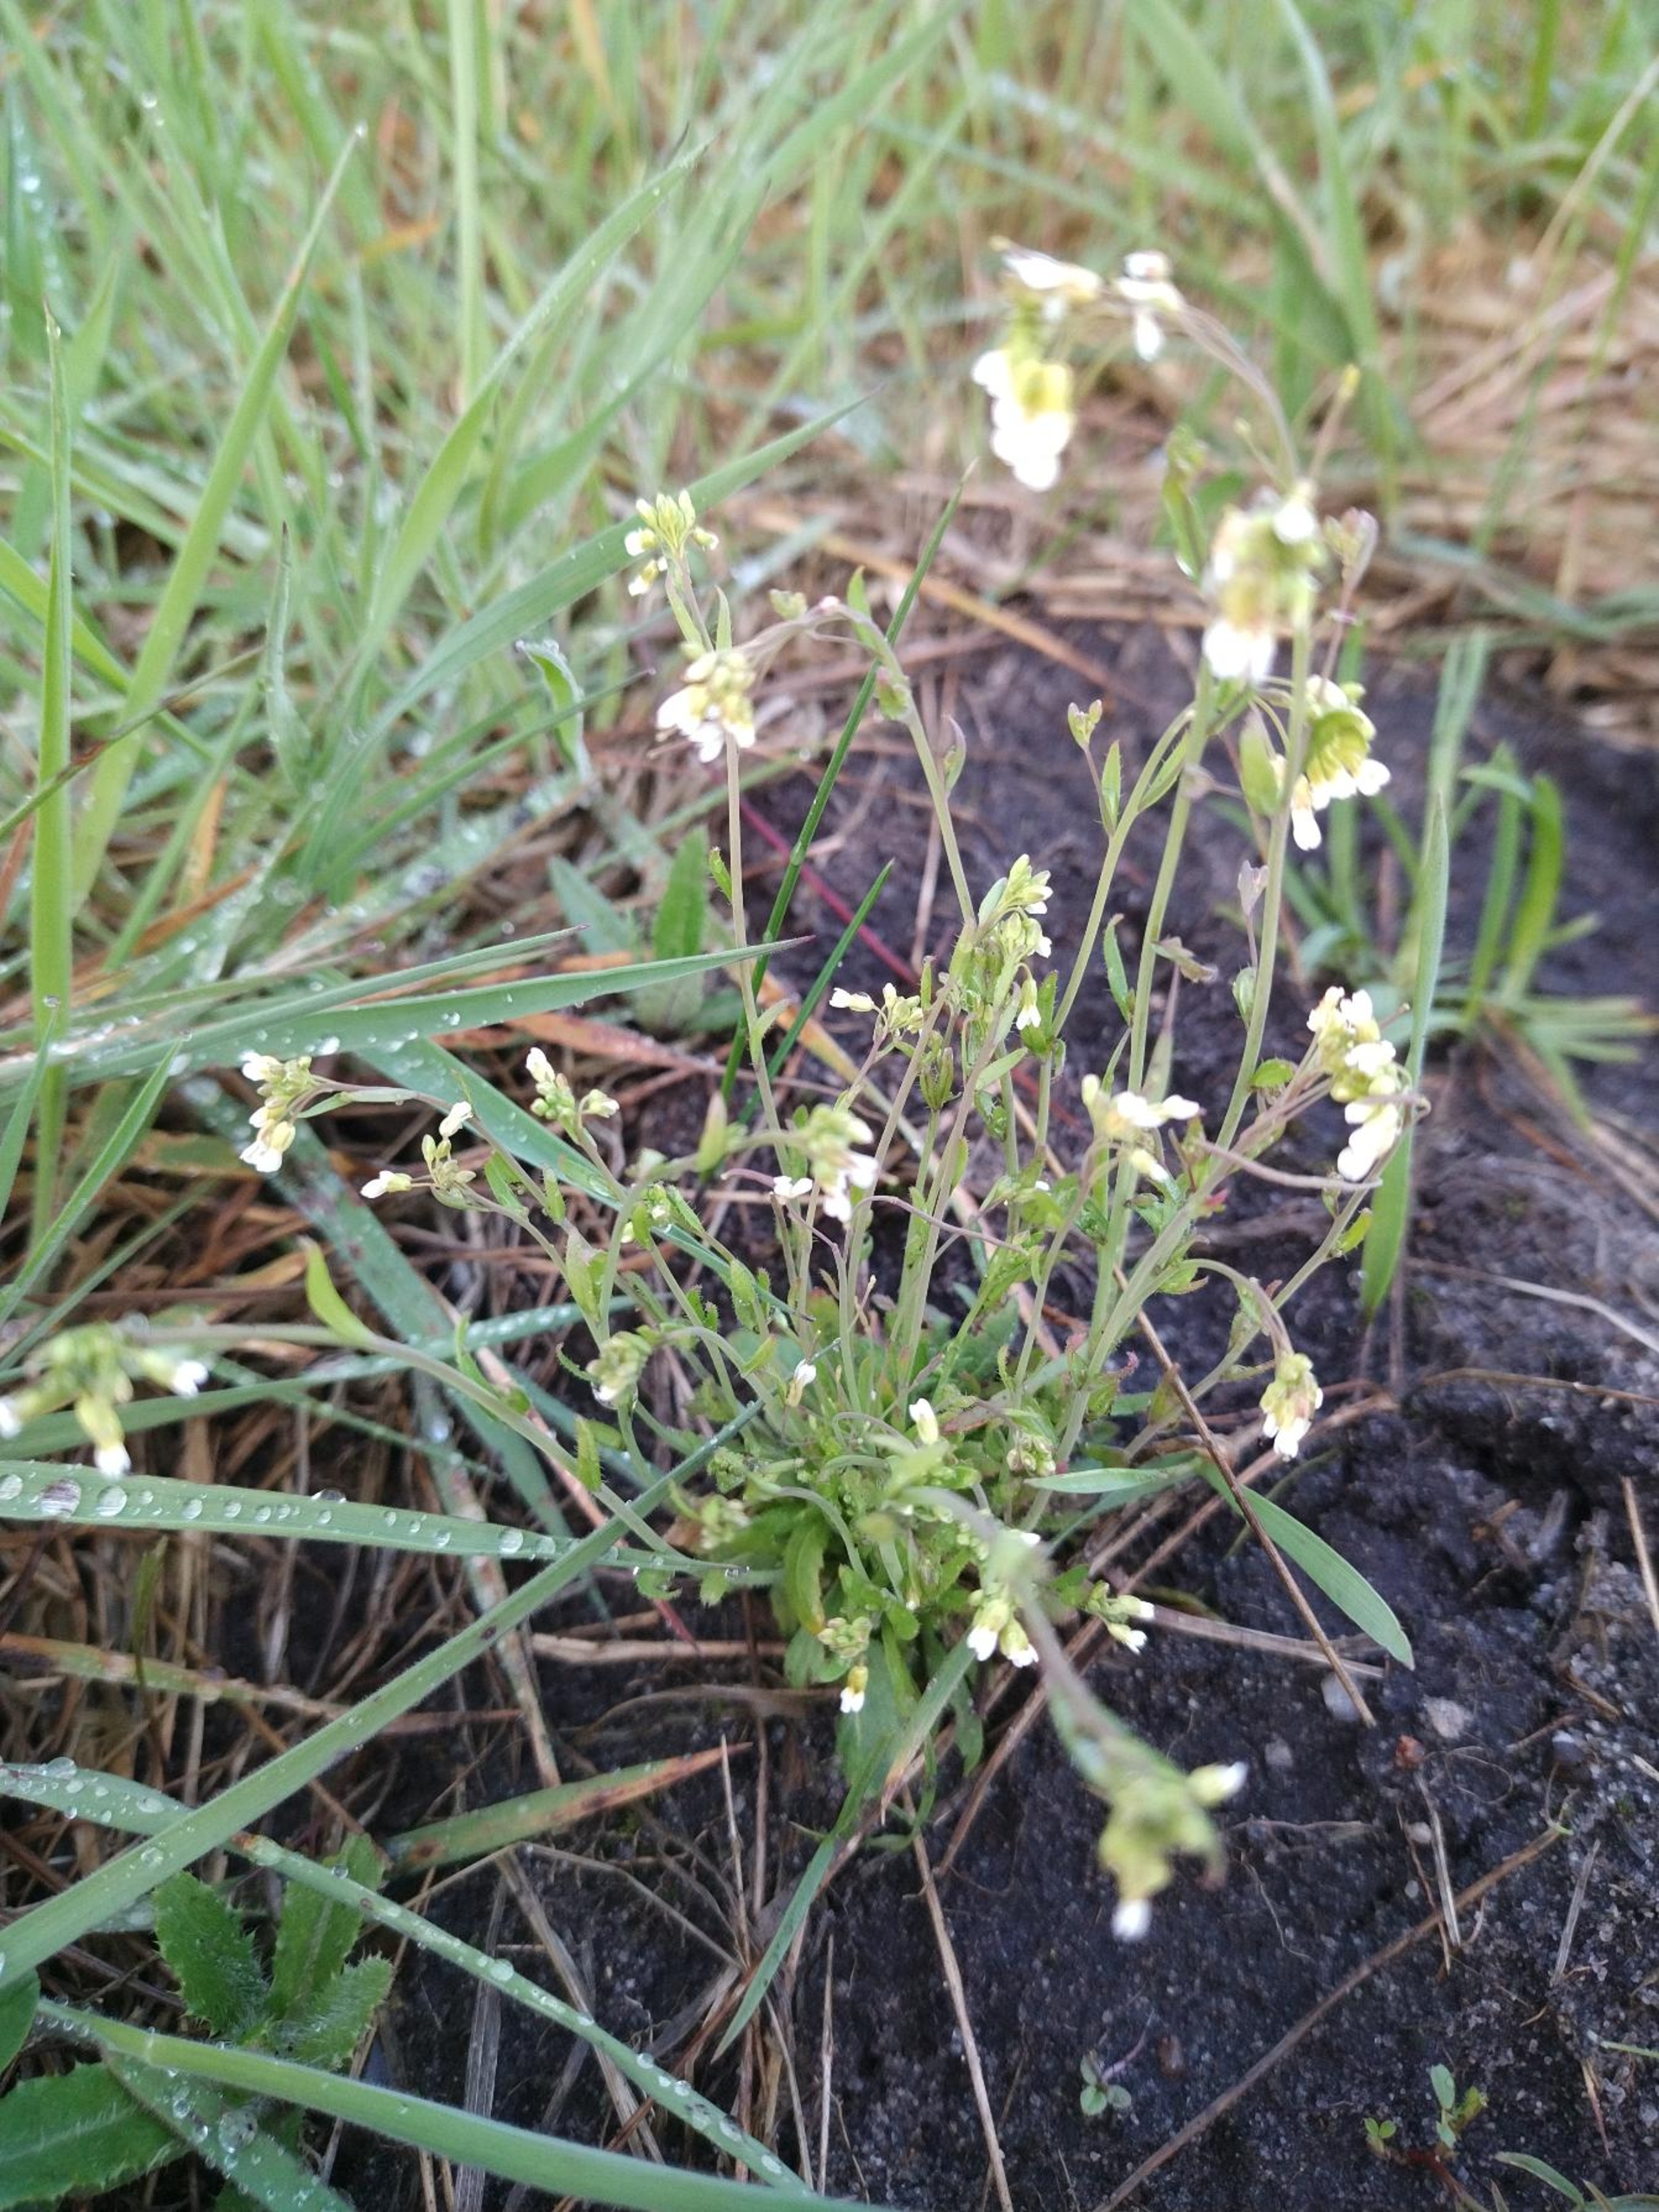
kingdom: Plantae
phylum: Tracheophyta
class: Magnoliopsida
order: Brassicales
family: Brassicaceae
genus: Arabidopsis
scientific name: Arabidopsis thaliana
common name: Almindelig gåsemad
